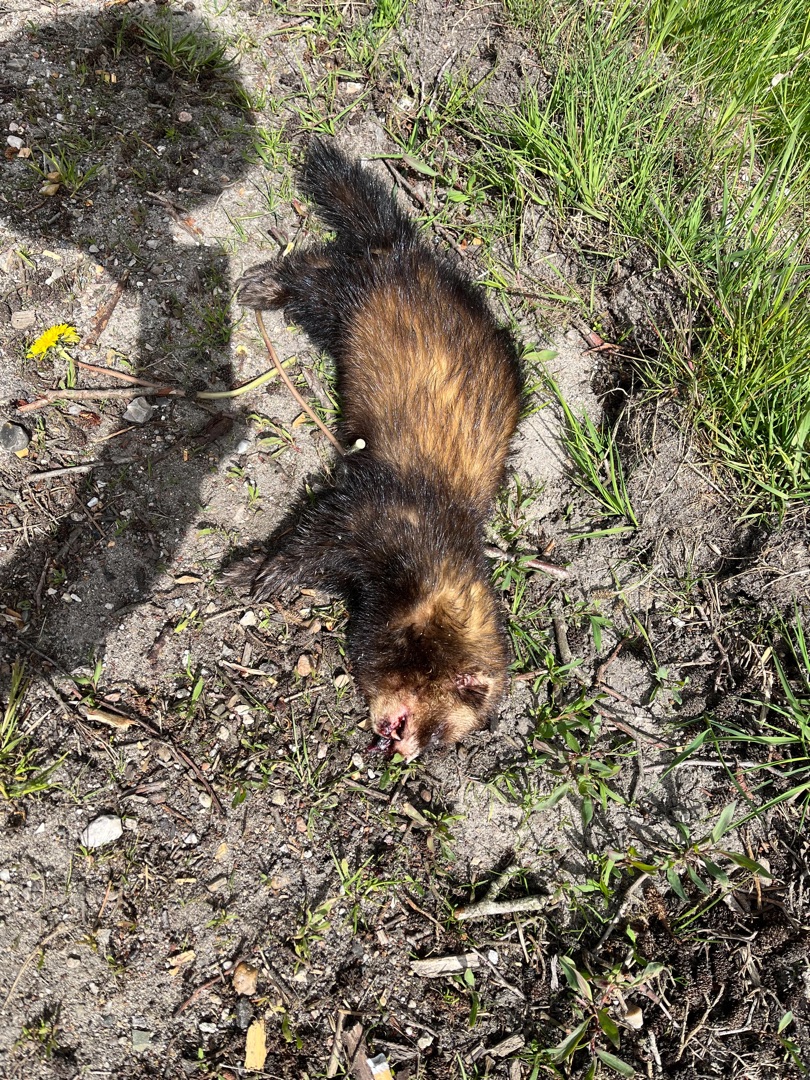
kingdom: Animalia
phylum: Chordata
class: Mammalia
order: Carnivora
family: Mustelidae
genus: Mustela
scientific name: Mustela putorius
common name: Ilder
